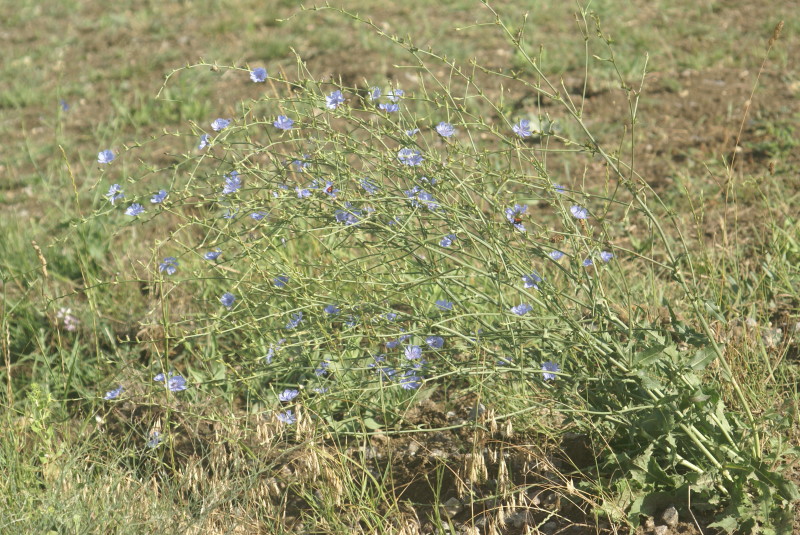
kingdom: Plantae
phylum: Tracheophyta
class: Magnoliopsida
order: Asterales
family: Asteraceae
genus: Cichorium
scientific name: Cichorium intybus
